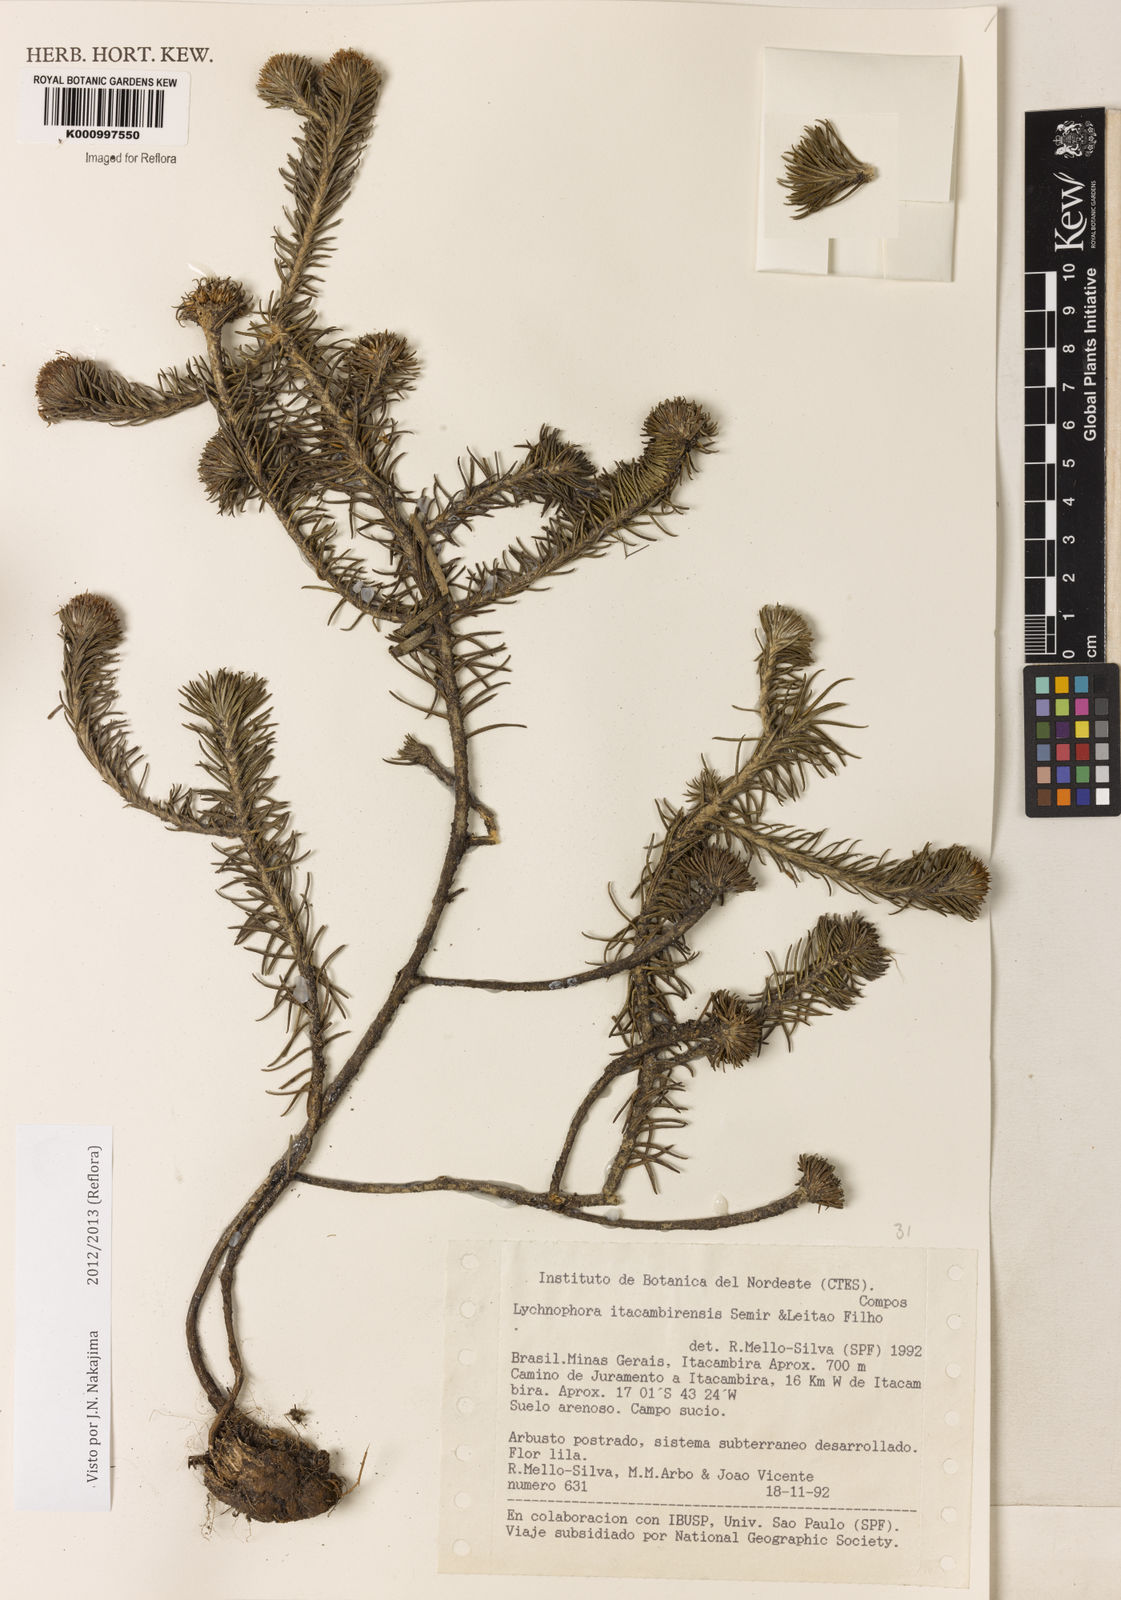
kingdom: Plantae
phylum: Tracheophyta
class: Magnoliopsida
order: Asterales
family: Asteraceae
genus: Lychnophora
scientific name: Lychnophora
